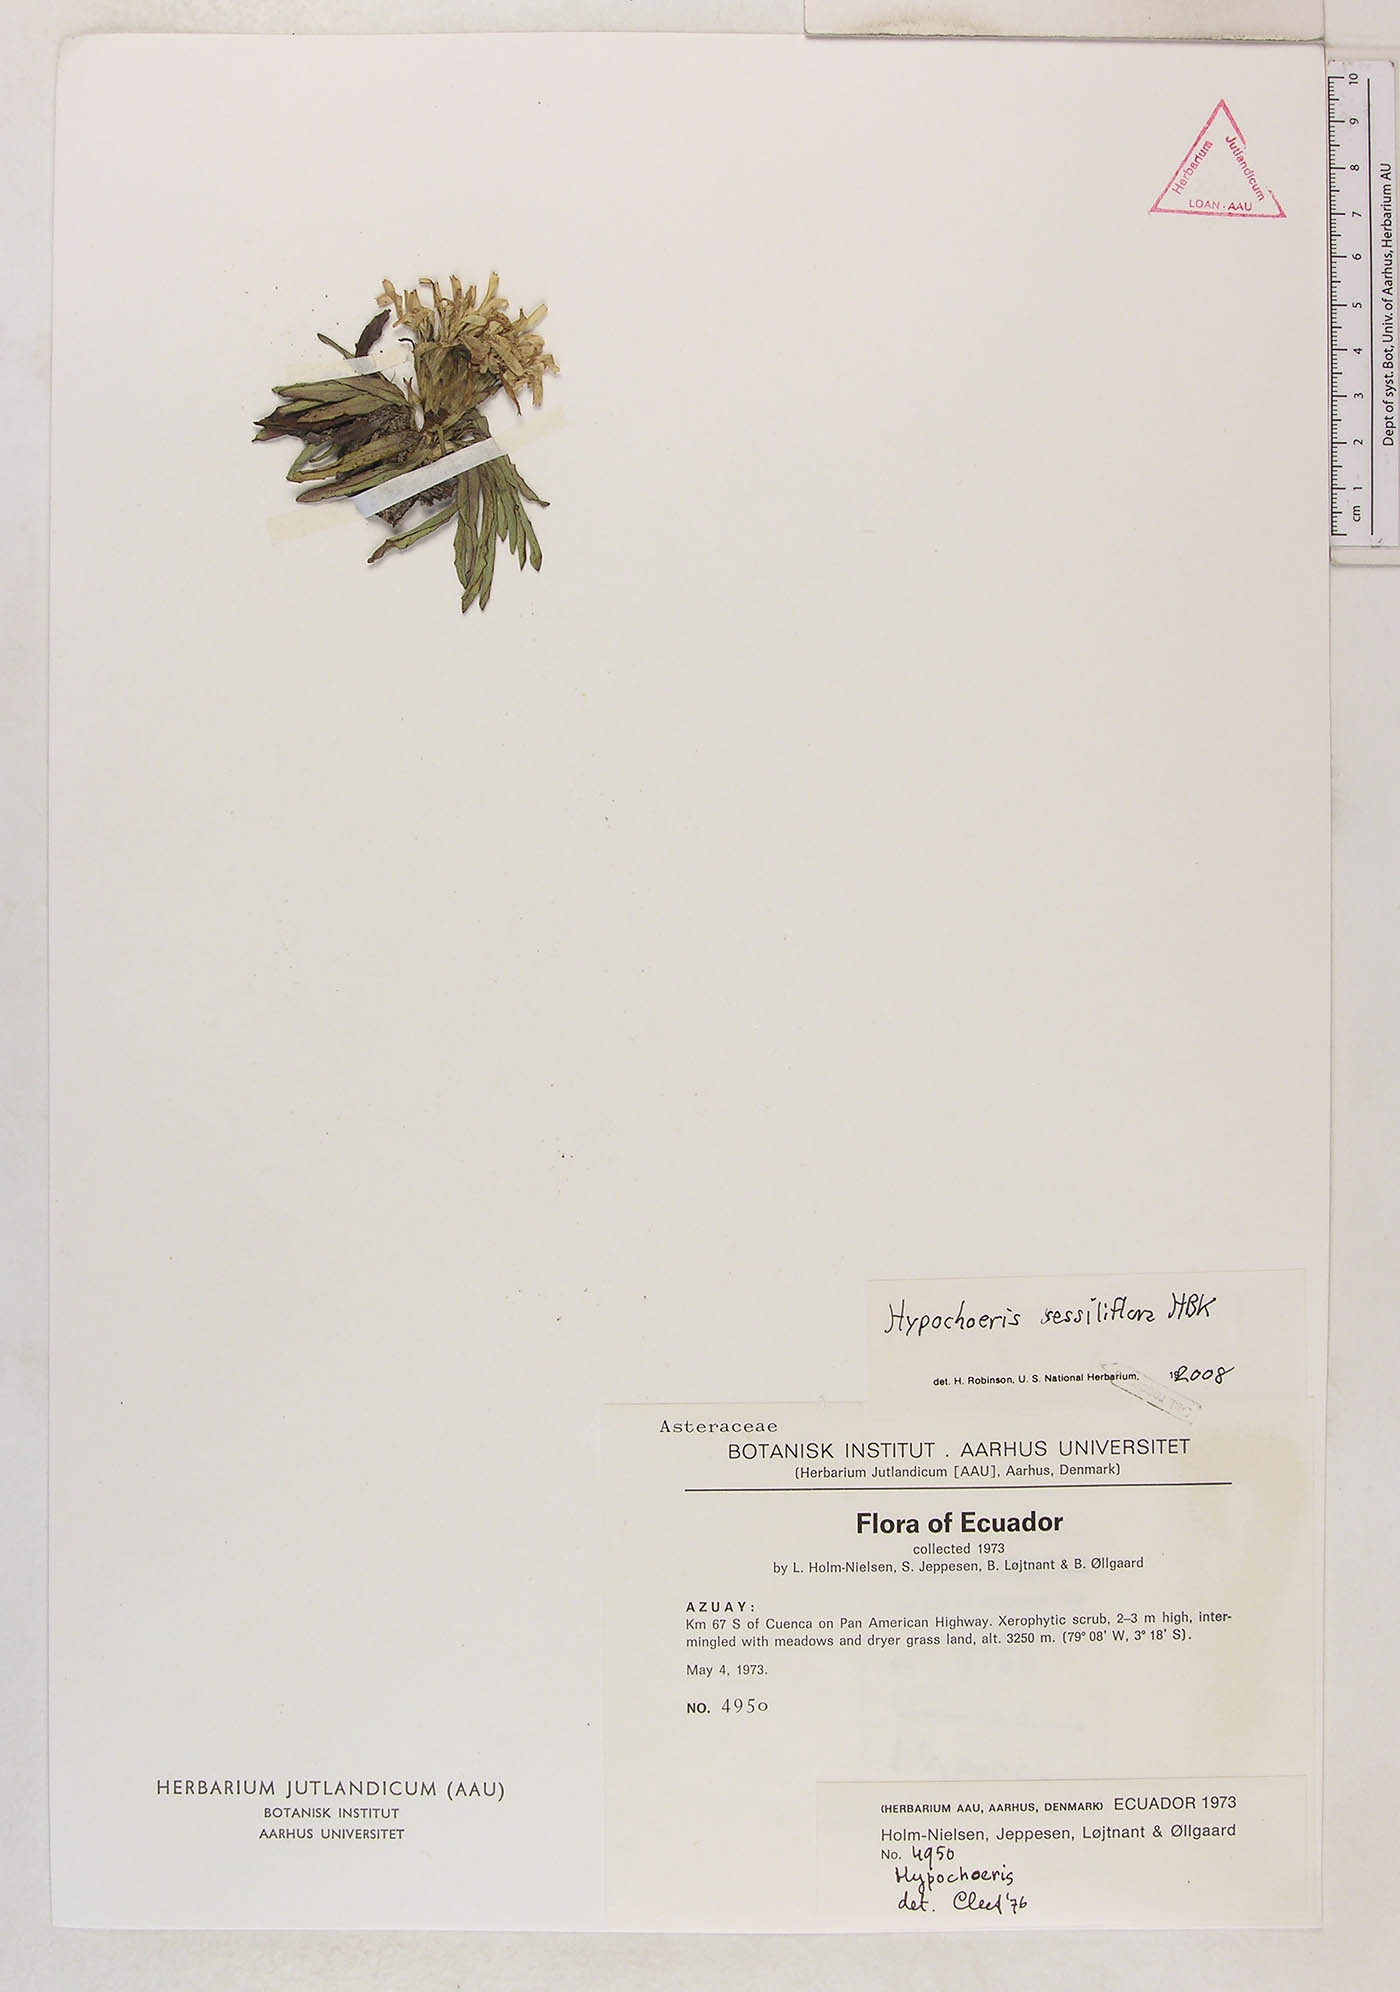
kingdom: Plantae
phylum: Tracheophyta
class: Magnoliopsida
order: Asterales
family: Asteraceae
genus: Hypochaeris
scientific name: Hypochaeris sessiliflora
